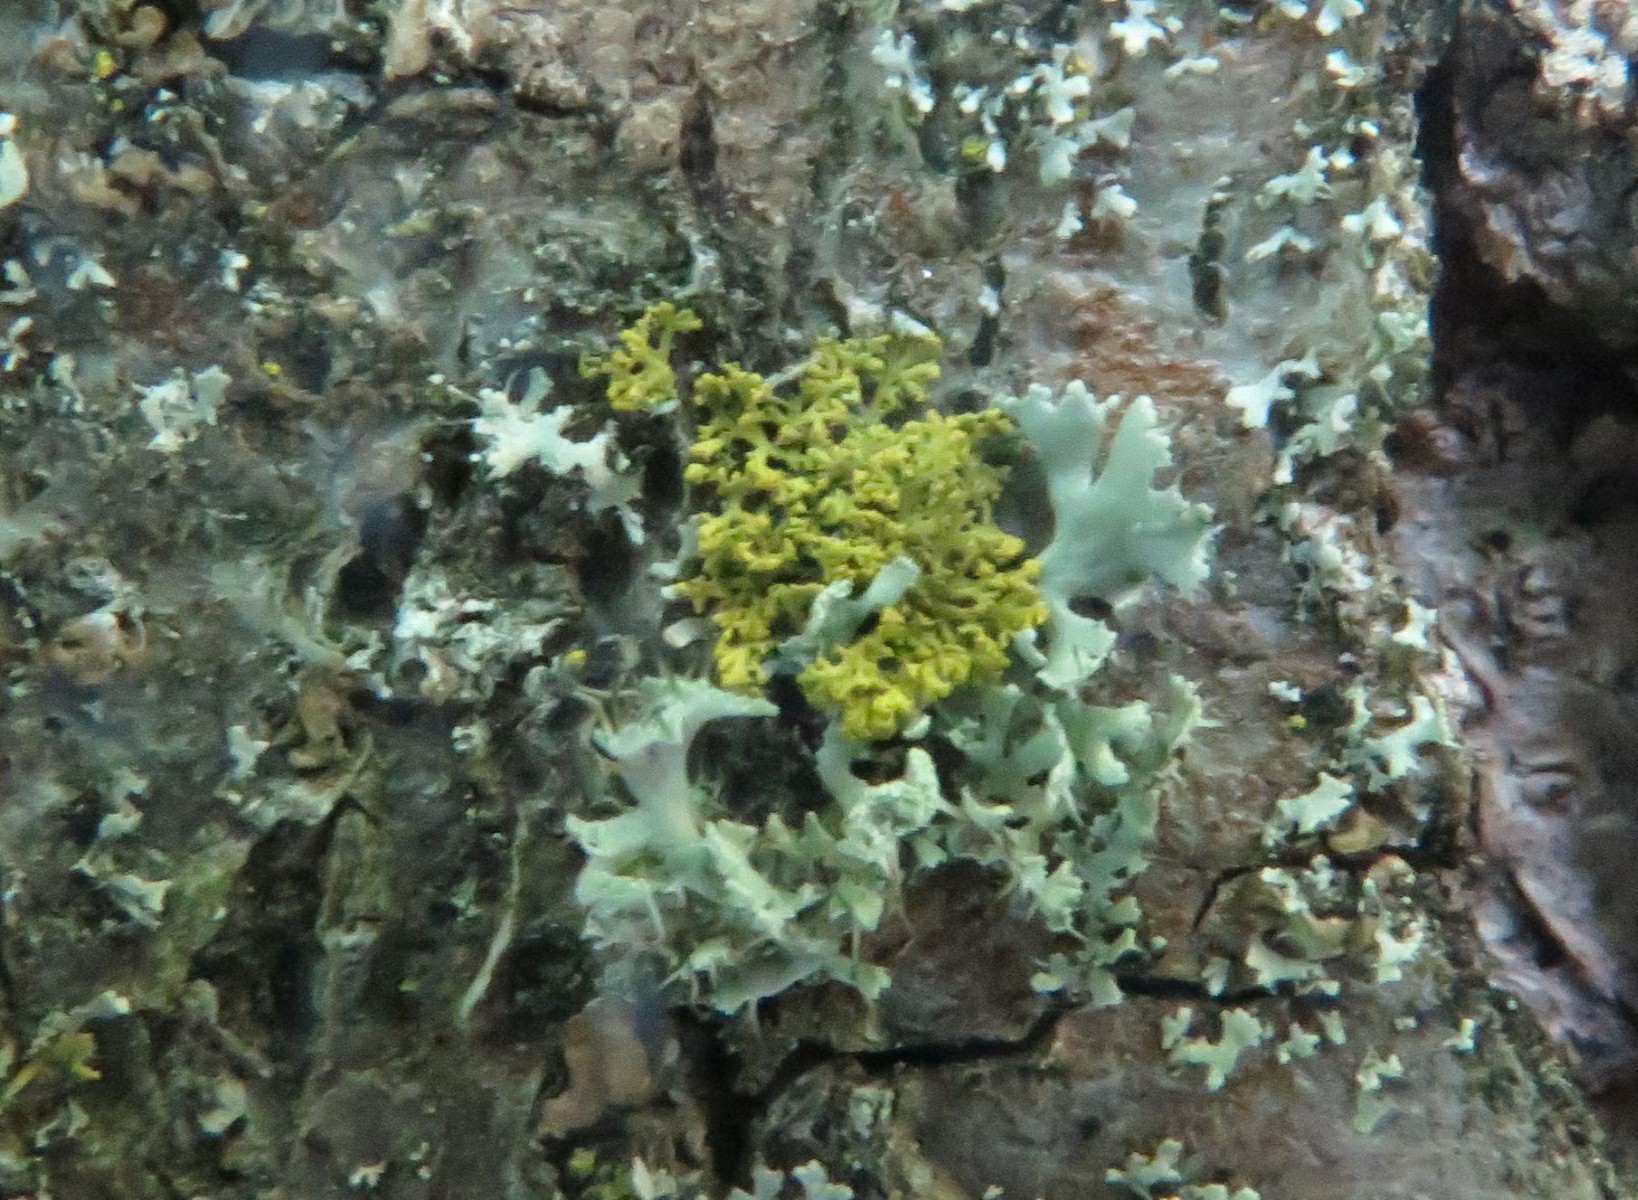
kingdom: Fungi
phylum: Ascomycota
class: Lecanoromycetes
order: Teloschistales
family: Teloschistaceae
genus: Polycauliona
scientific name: Polycauliona candelaria
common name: tue-orangelav
